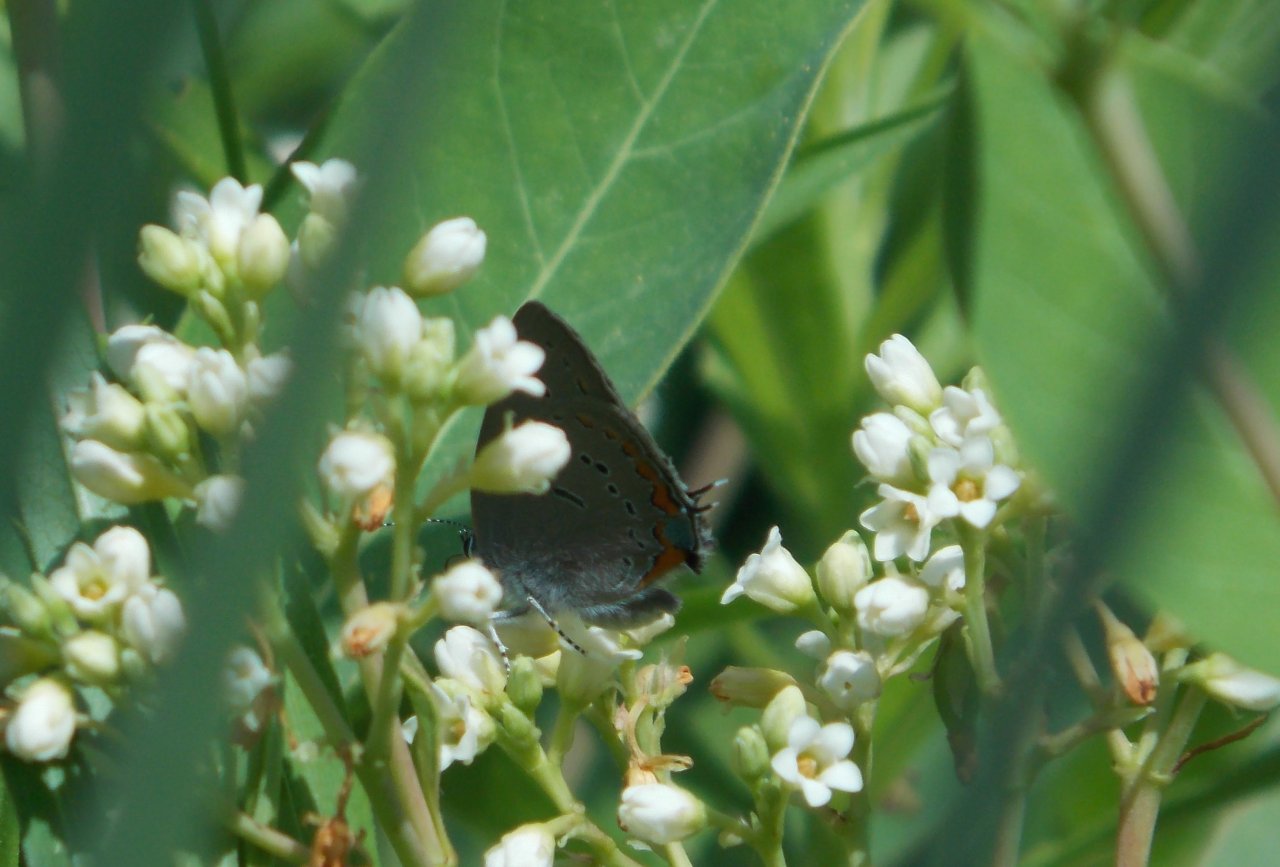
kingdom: Animalia
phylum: Arthropoda
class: Insecta
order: Lepidoptera
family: Lycaenidae
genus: Strymon
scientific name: Strymon acadica
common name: Acadian Hairstreak
